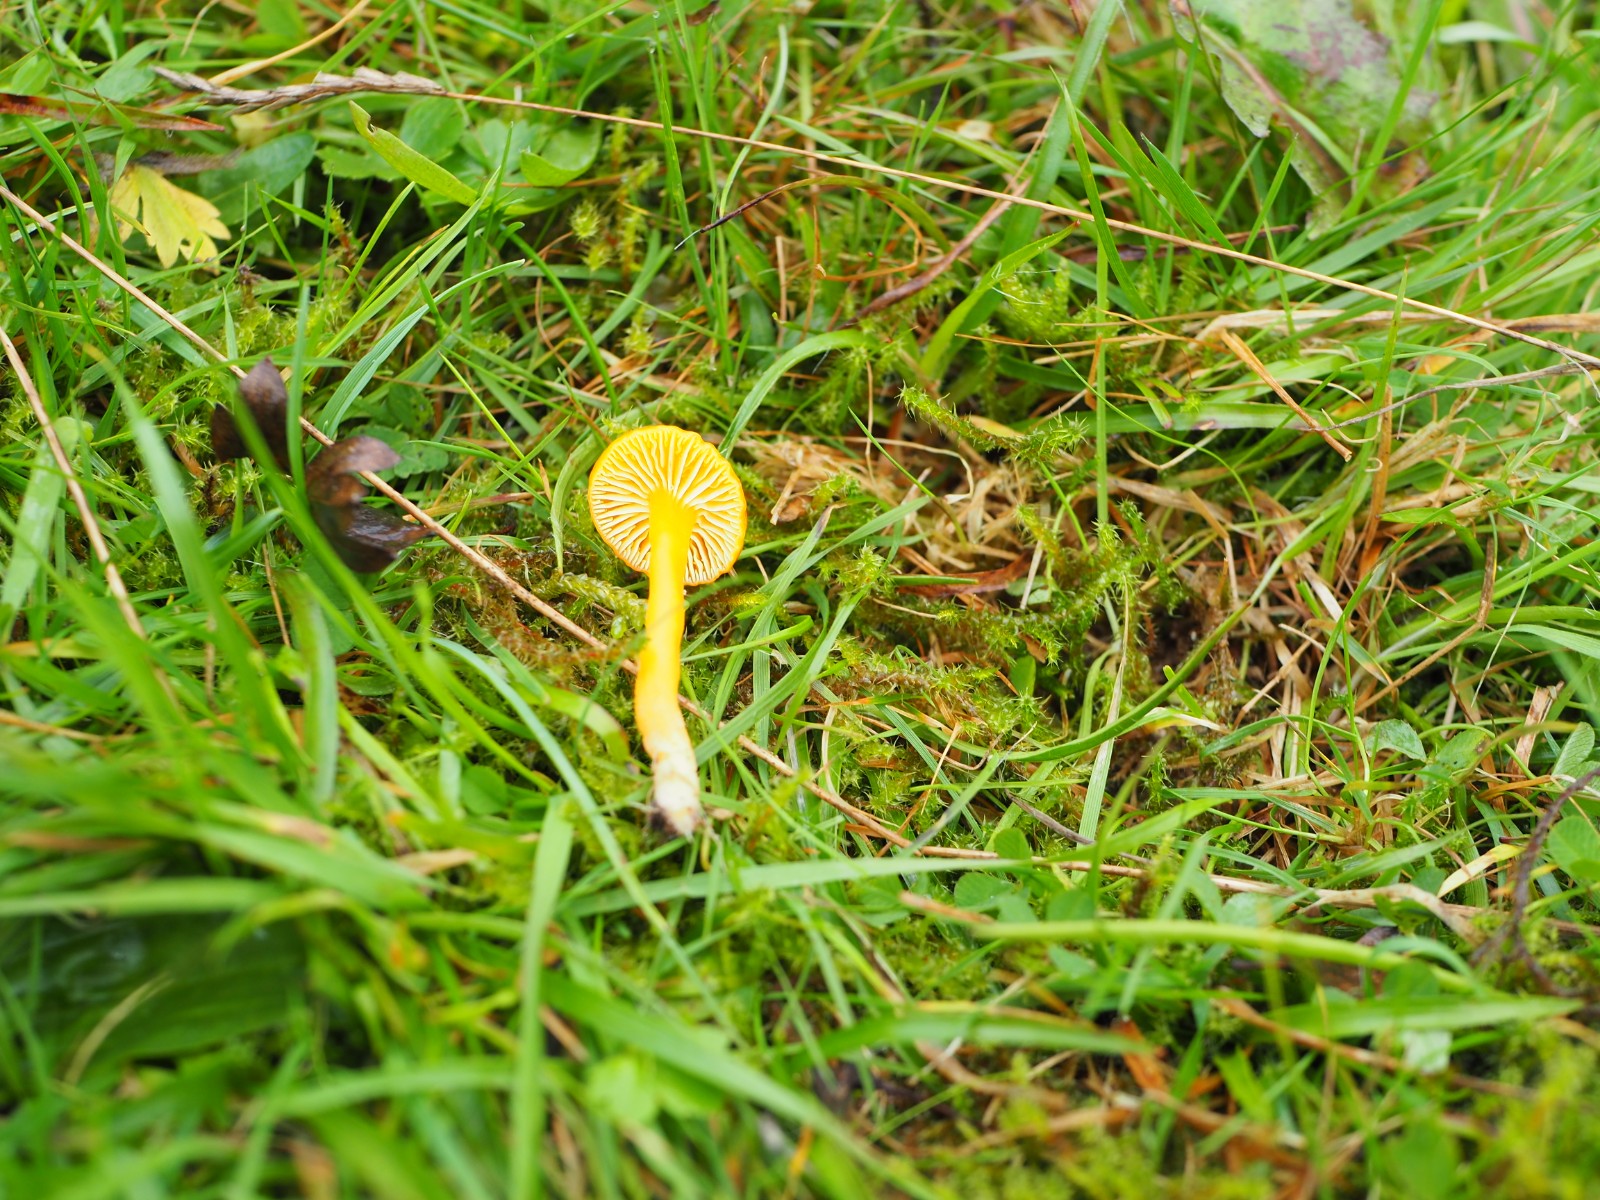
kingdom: Fungi
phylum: Basidiomycota
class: Agaricomycetes
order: Agaricales
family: Hygrophoraceae
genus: Hygrocybe
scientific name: Hygrocybe ceracea
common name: voksgul vokshat
